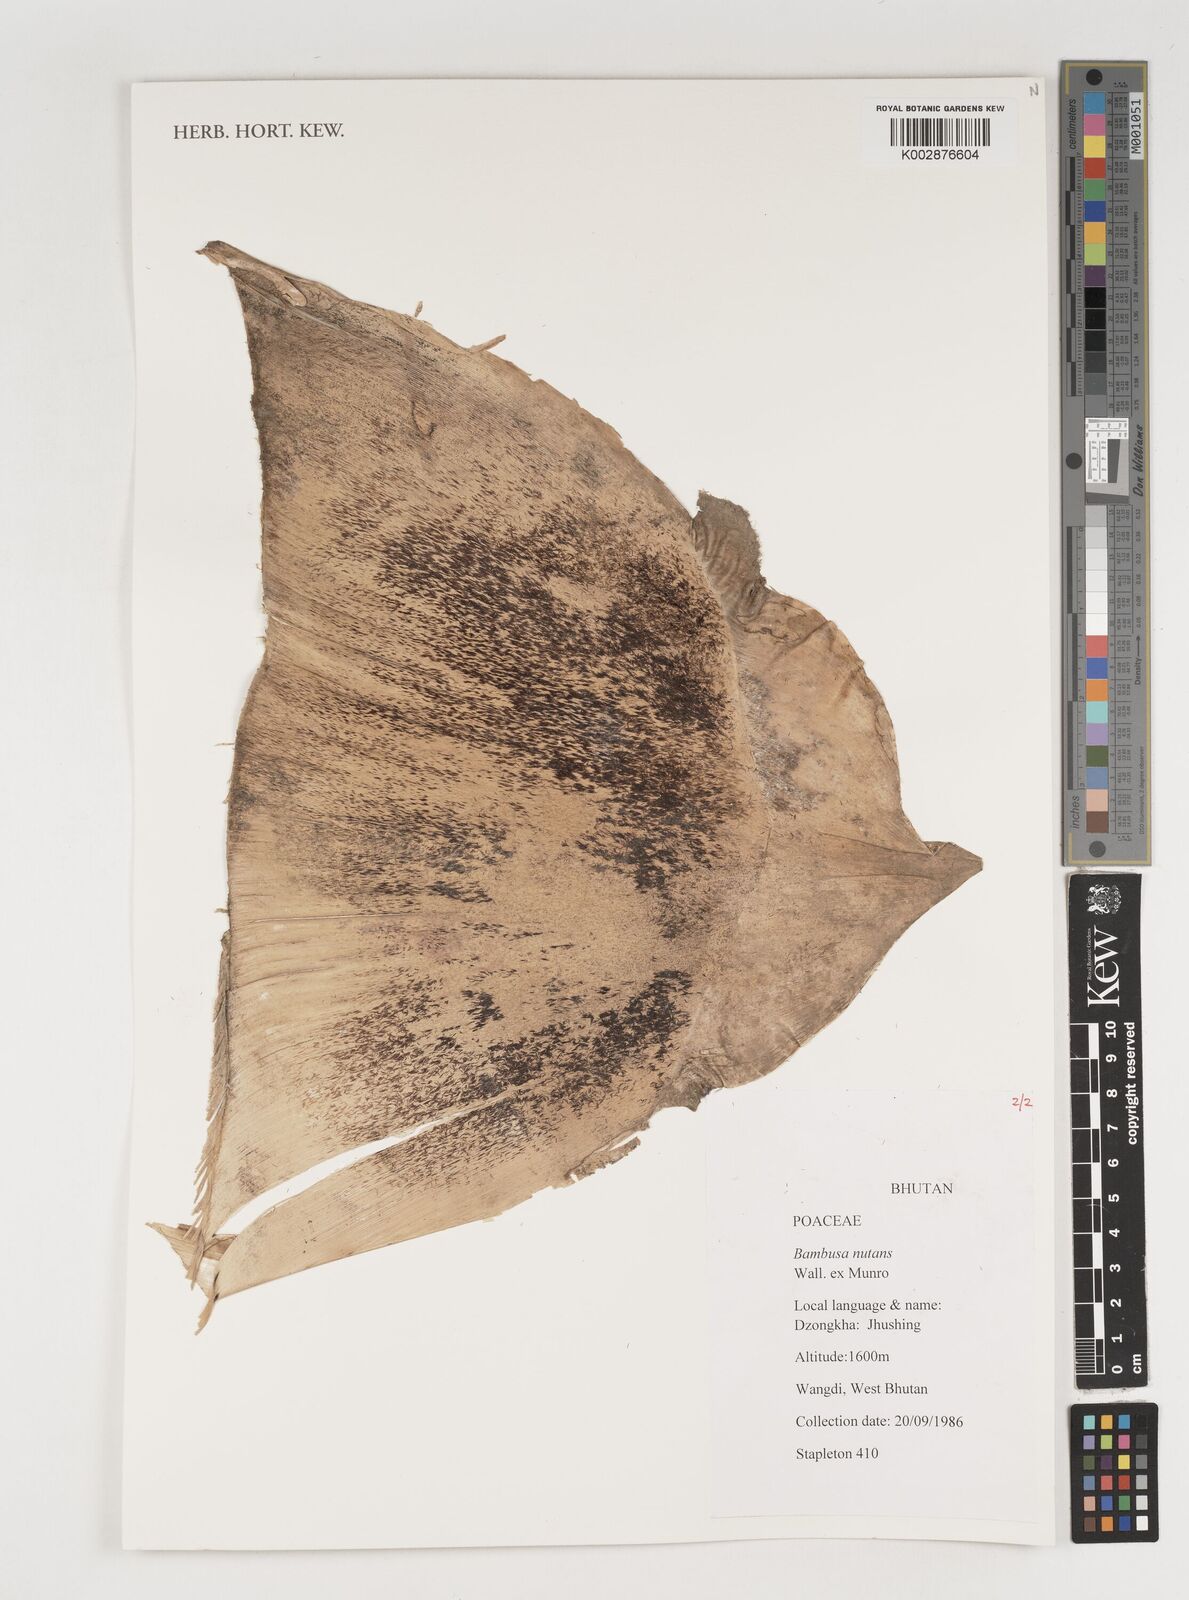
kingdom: Plantae
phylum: Tracheophyta
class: Liliopsida
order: Poales
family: Poaceae
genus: Bambusa
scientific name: Bambusa nutans
